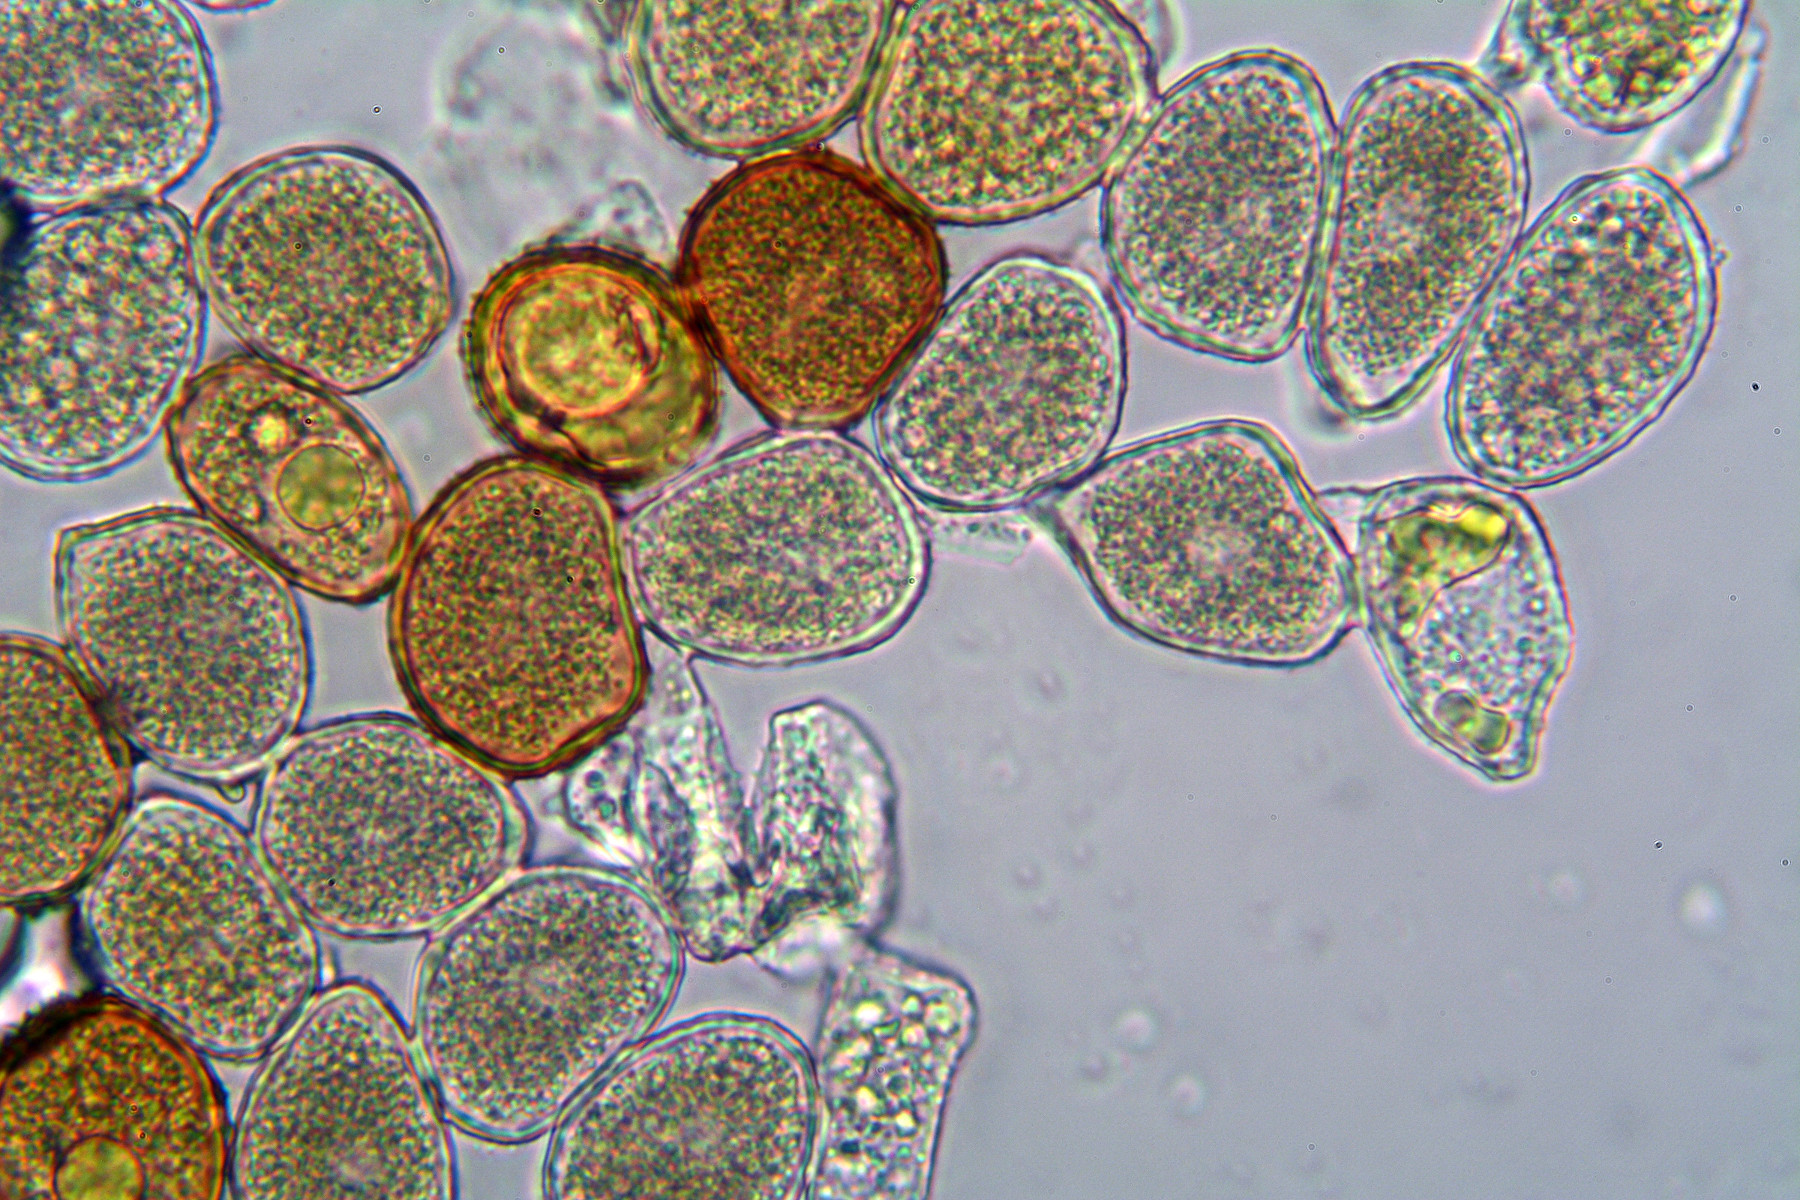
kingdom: Fungi
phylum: Basidiomycota
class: Pucciniomycetes
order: Pucciniales
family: Pucciniaceae
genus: Puccinia
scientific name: Puccinia caricina
